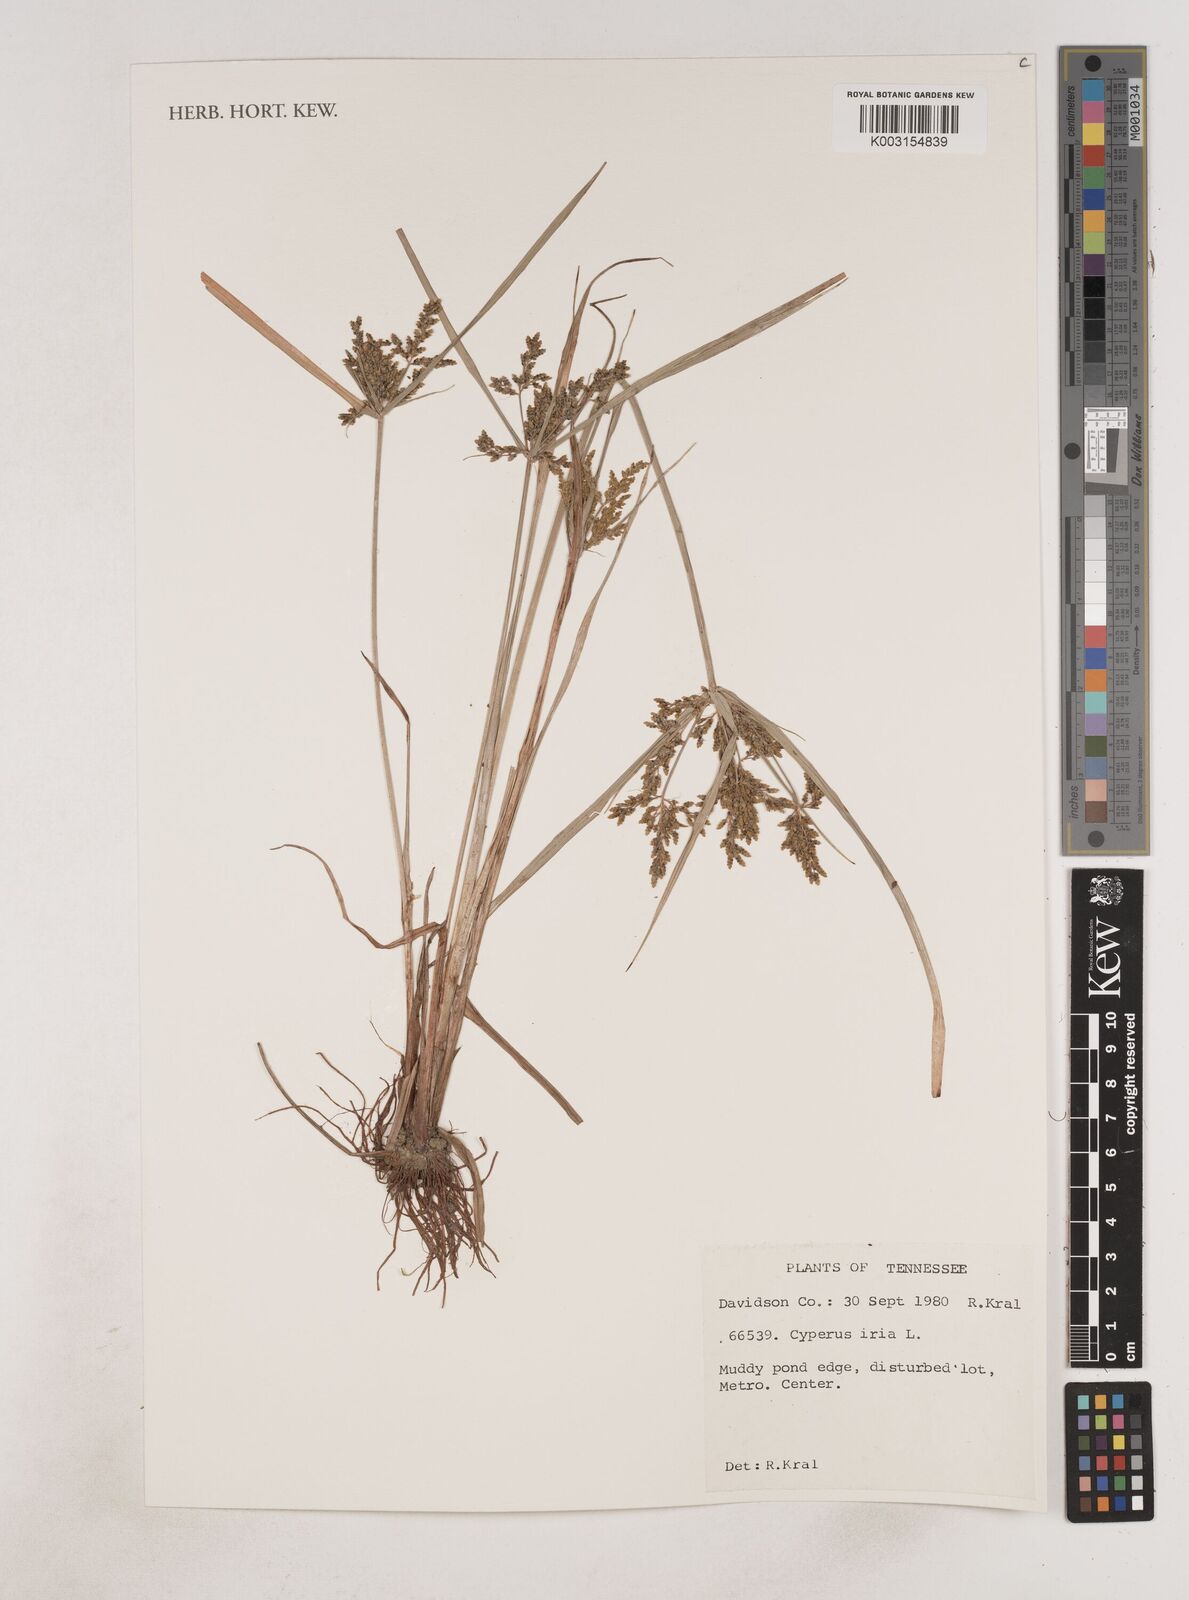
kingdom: Plantae
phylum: Tracheophyta
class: Liliopsida
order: Poales
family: Cyperaceae
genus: Cyperus
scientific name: Cyperus iria
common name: Ricefield flatsedge
